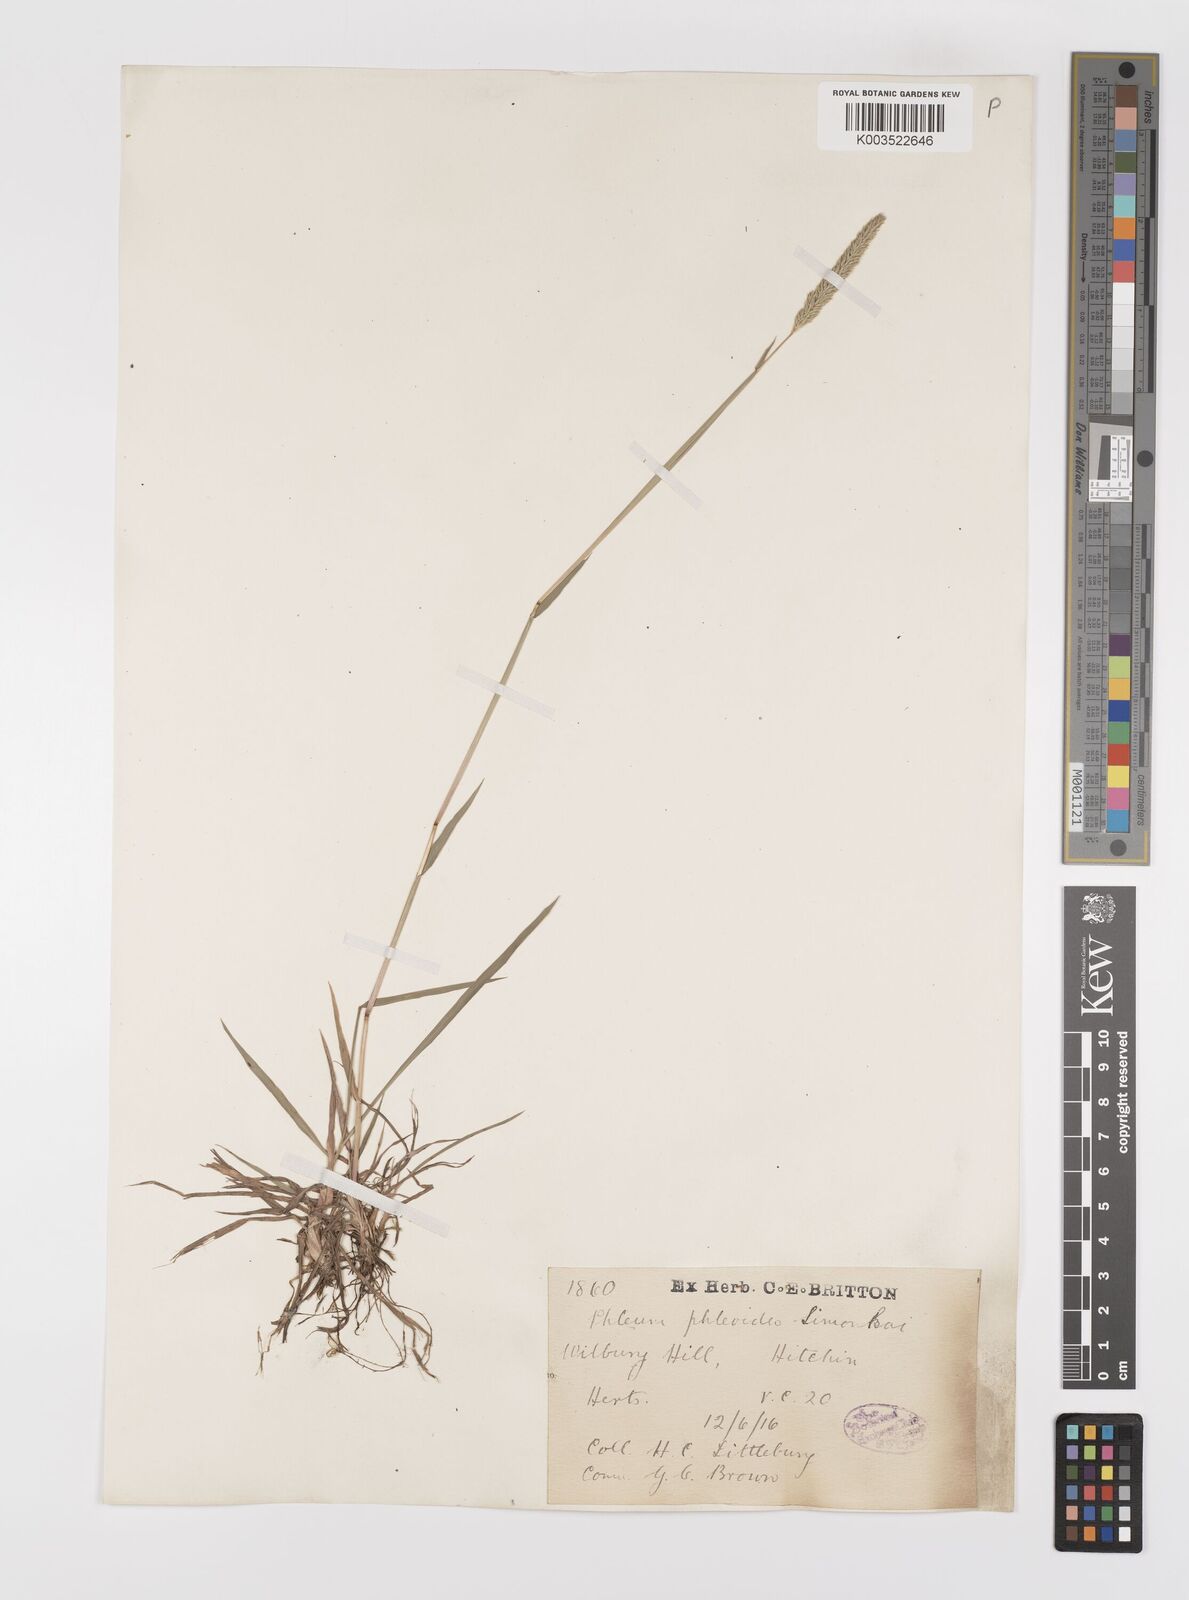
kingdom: Plantae
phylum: Tracheophyta
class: Liliopsida
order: Poales
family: Poaceae
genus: Phleum
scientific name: Phleum phleoides
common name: Purple-stem cat's-tail
